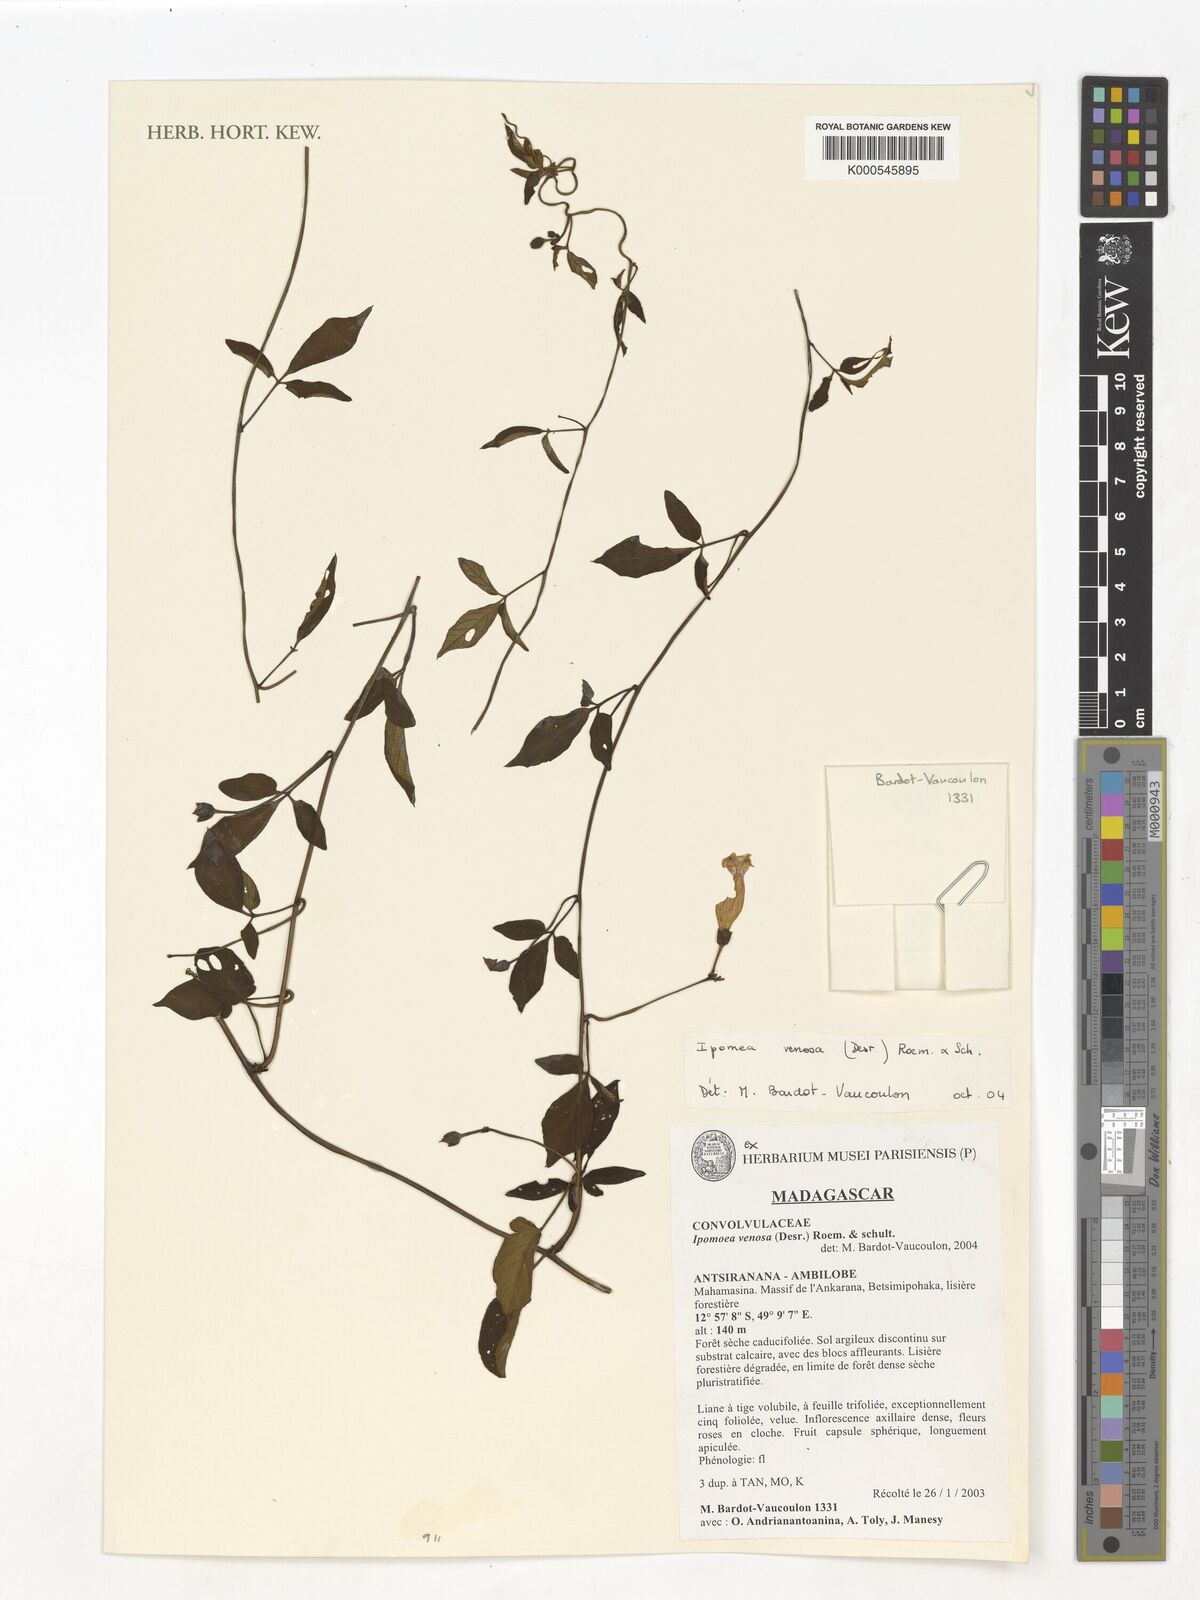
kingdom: Plantae
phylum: Tracheophyta
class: Magnoliopsida
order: Solanales
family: Convolvulaceae
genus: Ipomoea
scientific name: Ipomoea venosa
